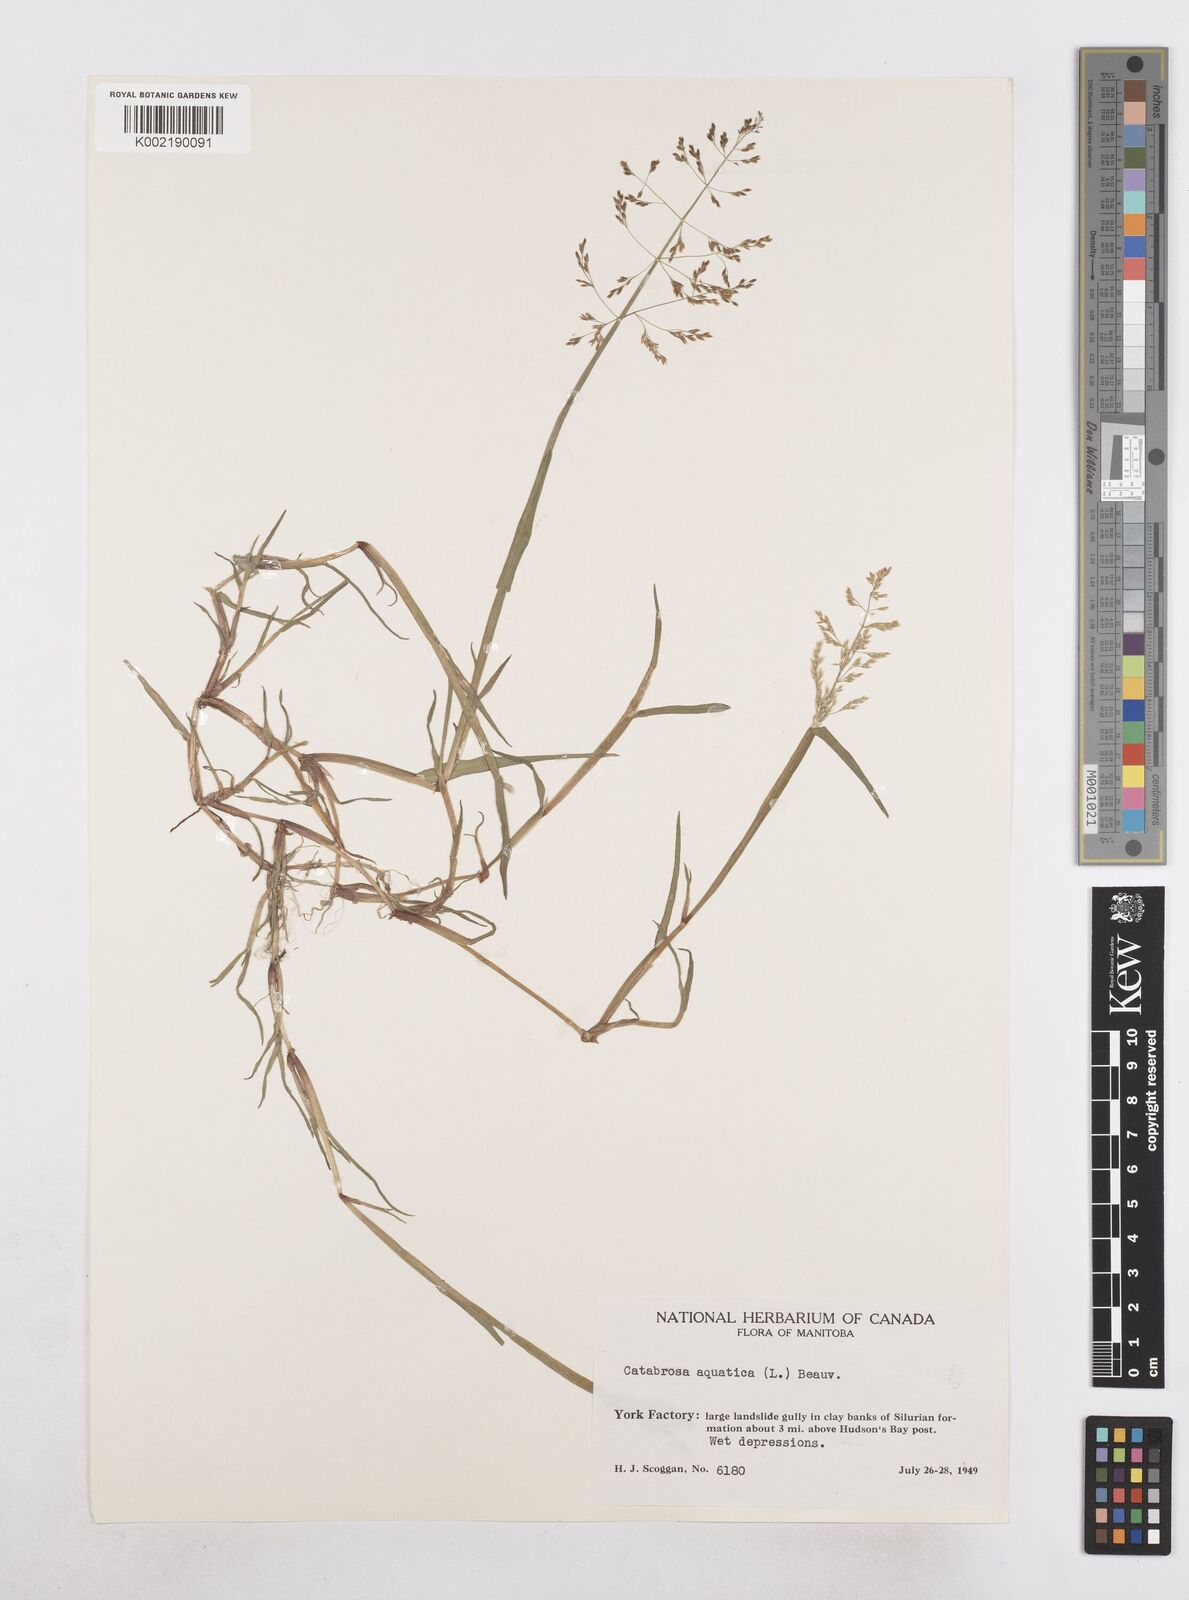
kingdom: Plantae
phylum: Tracheophyta
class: Liliopsida
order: Poales
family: Poaceae
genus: Catabrosa
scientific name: Catabrosa aquatica
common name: Whorl-grass
